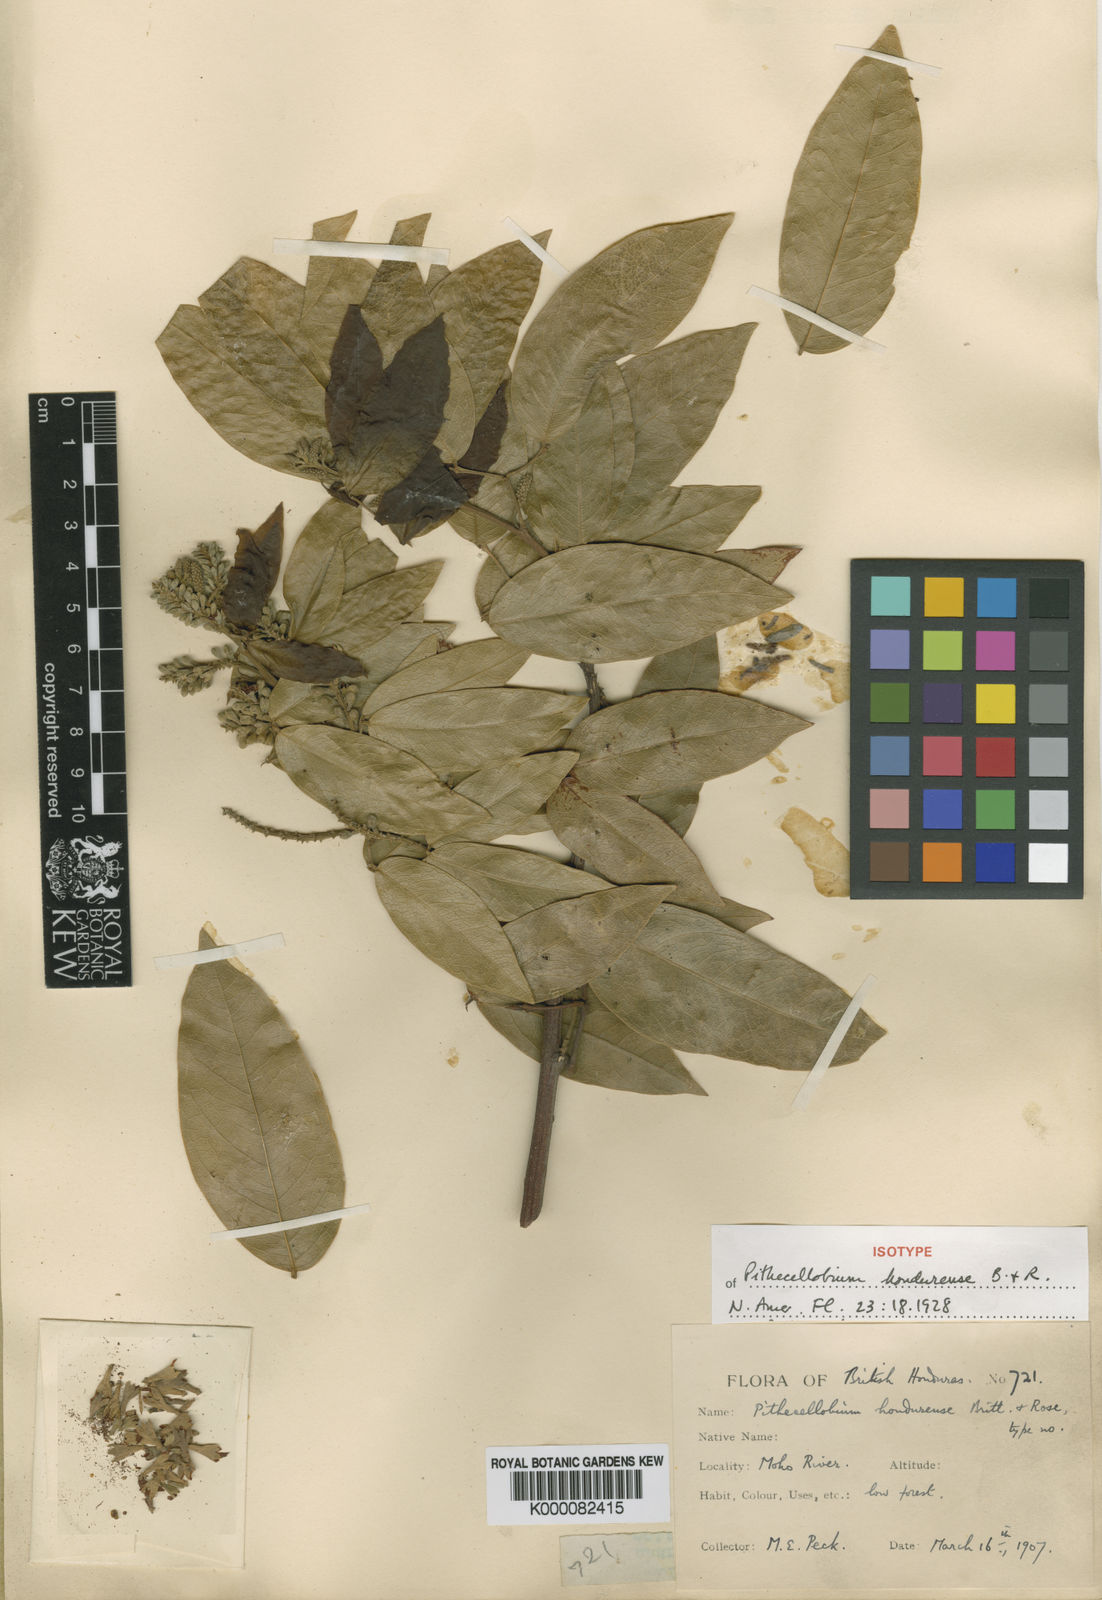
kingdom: Plantae
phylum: Tracheophyta
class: Magnoliopsida
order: Fabales
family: Fabaceae
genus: Pithecellobium
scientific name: Pithecellobium hymenaeifolium
